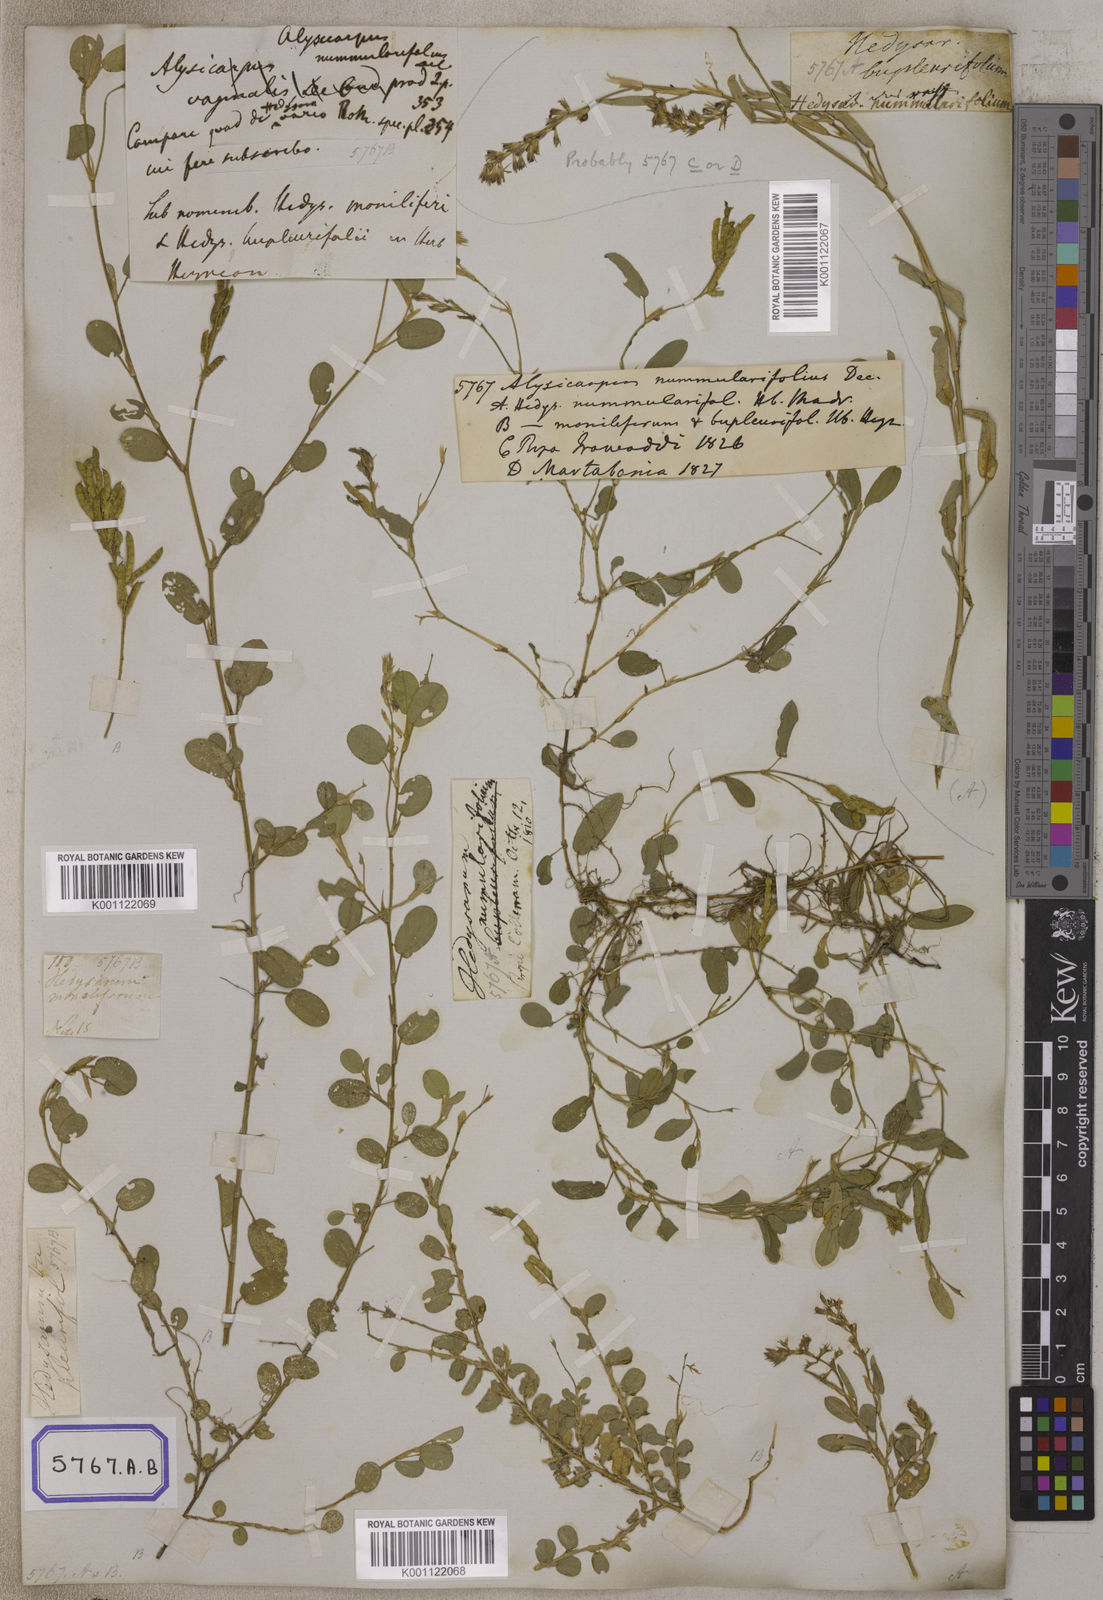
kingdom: Plantae
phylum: Tracheophyta
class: Magnoliopsida
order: Fabales
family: Fabaceae
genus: Alysicarpus
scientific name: Alysicarpus vaginalis
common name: White moneywort
